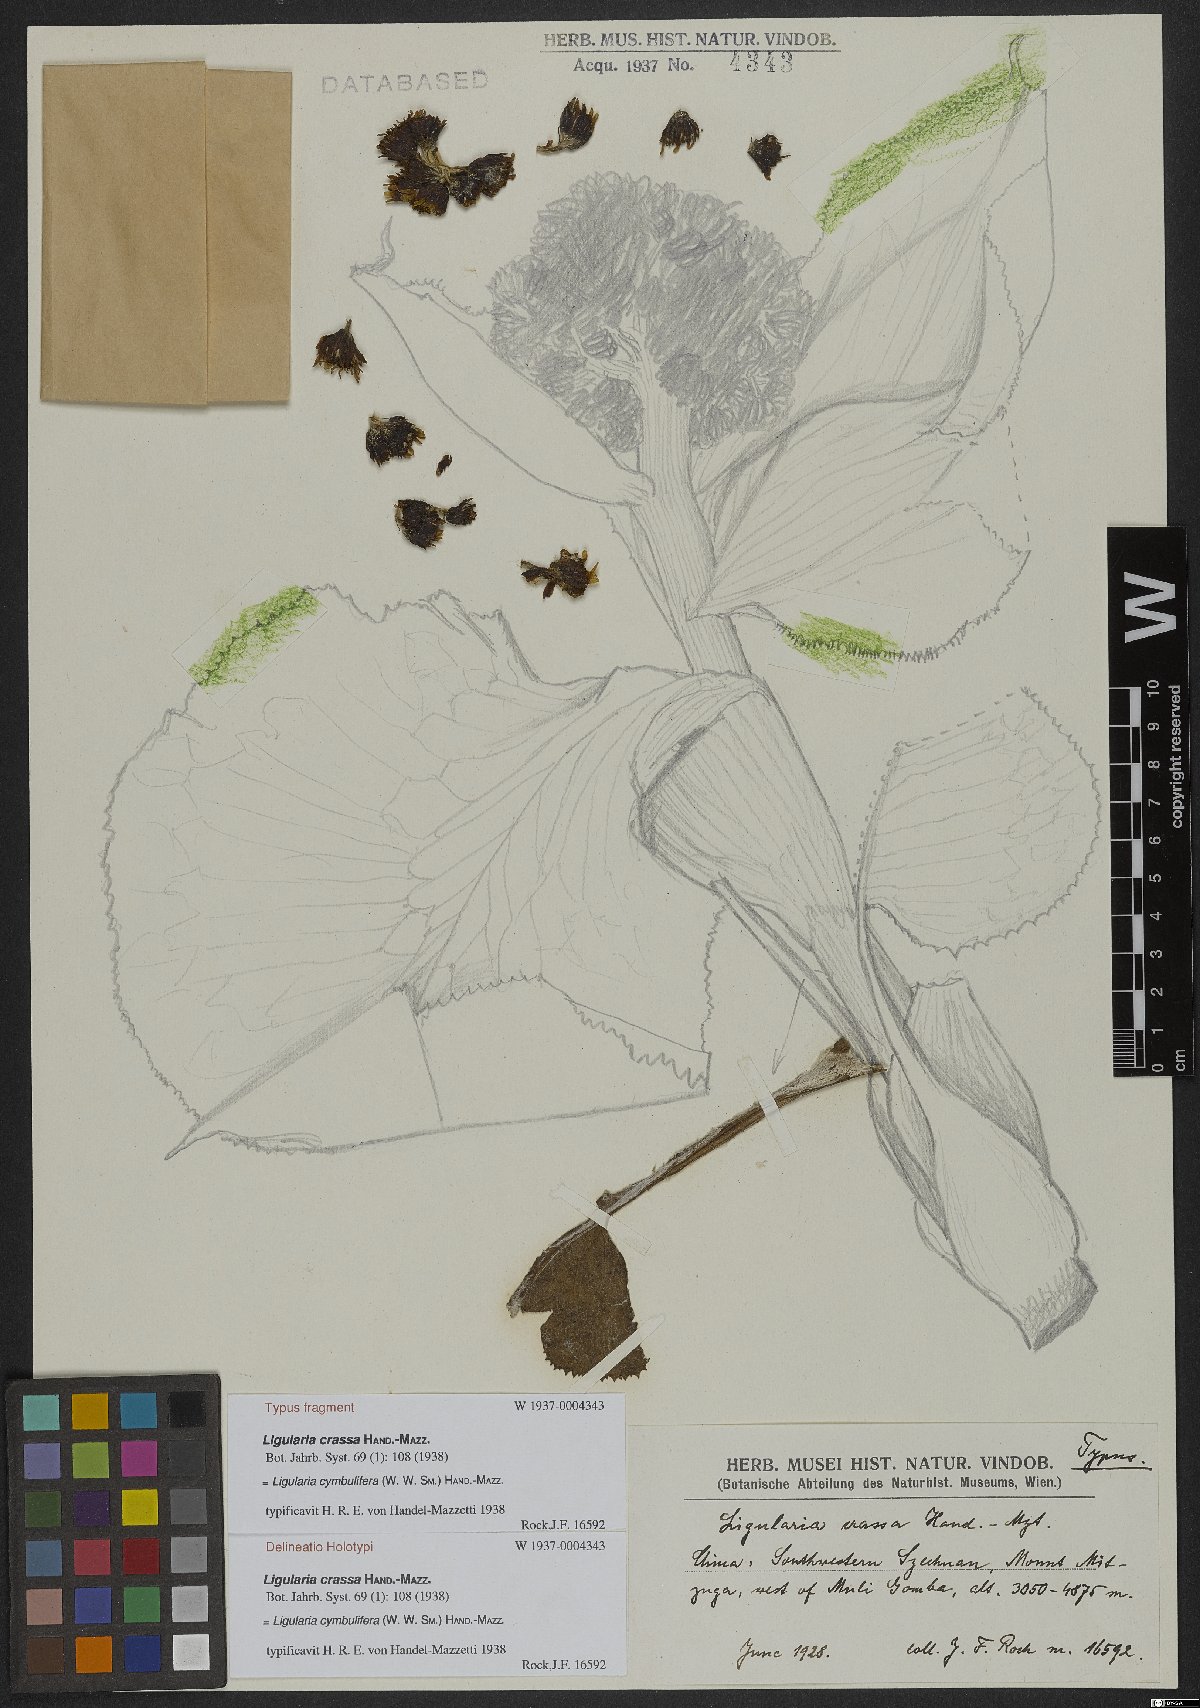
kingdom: Plantae
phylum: Tracheophyta
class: Magnoliopsida
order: Asterales
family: Asteraceae
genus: Ligularia
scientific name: Ligularia cymbulifera
